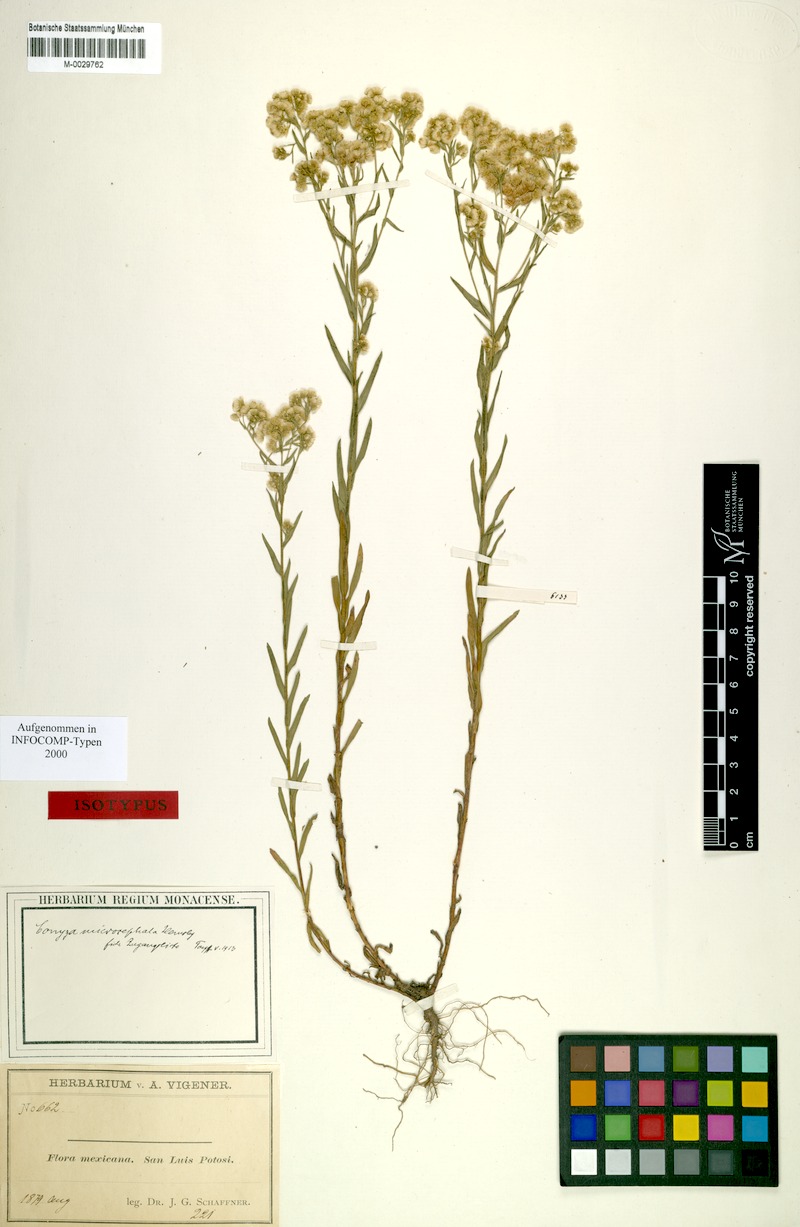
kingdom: Plantae
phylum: Tracheophyta
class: Magnoliopsida
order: Asterales
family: Asteraceae
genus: Erigeron
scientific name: Erigeron columnaris
